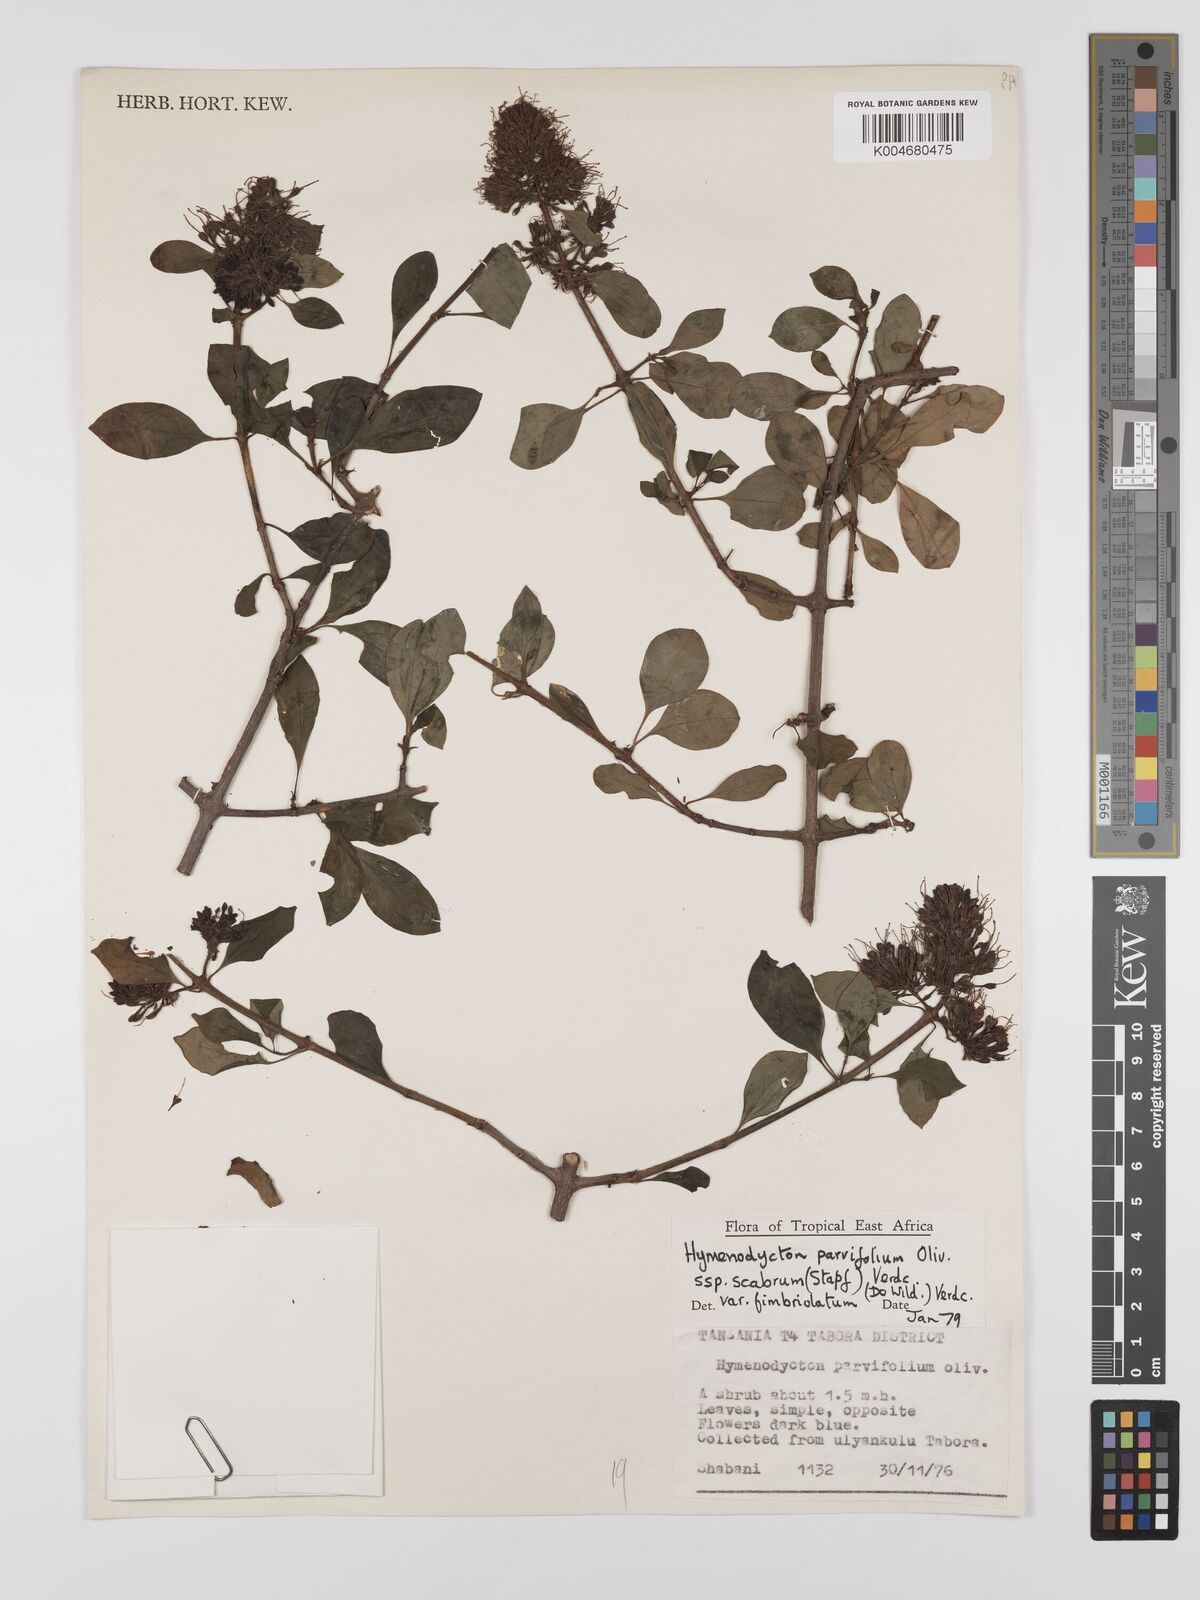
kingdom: Plantae
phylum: Tracheophyta
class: Magnoliopsida
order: Gentianales
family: Rubiaceae
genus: Hymenodictyon
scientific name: Hymenodictyon scabrum
